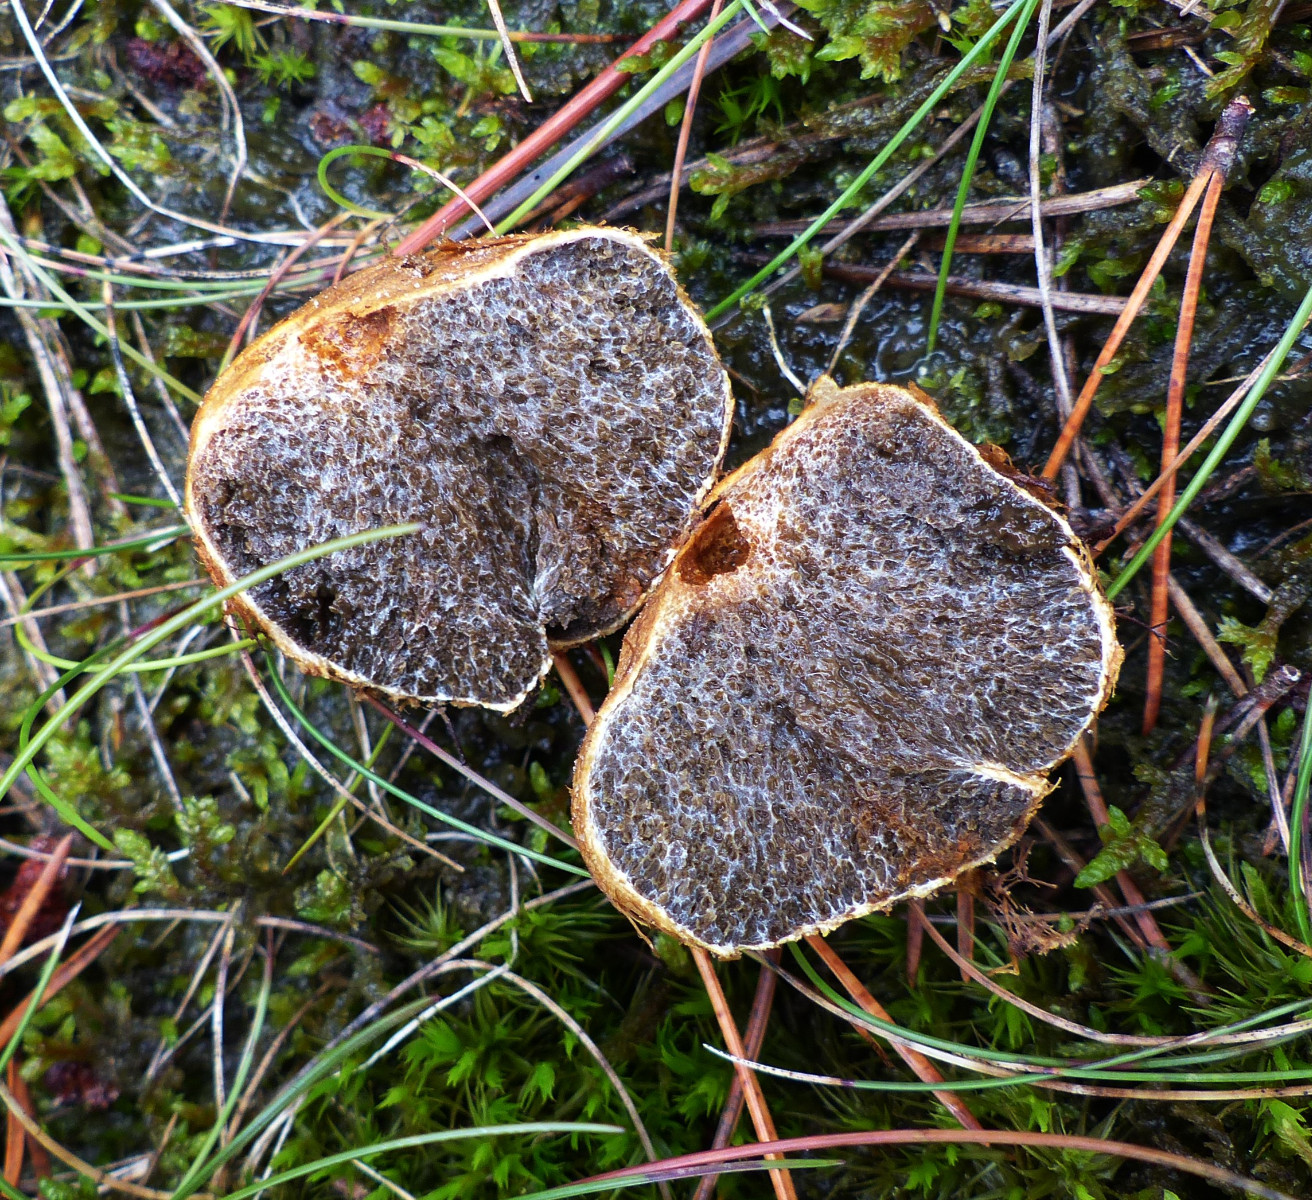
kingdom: Fungi
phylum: Basidiomycota
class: Agaricomycetes
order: Boletales
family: Rhizopogonaceae
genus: Rhizopogon
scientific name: Rhizopogon obtextus
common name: gul skægtrøffel
